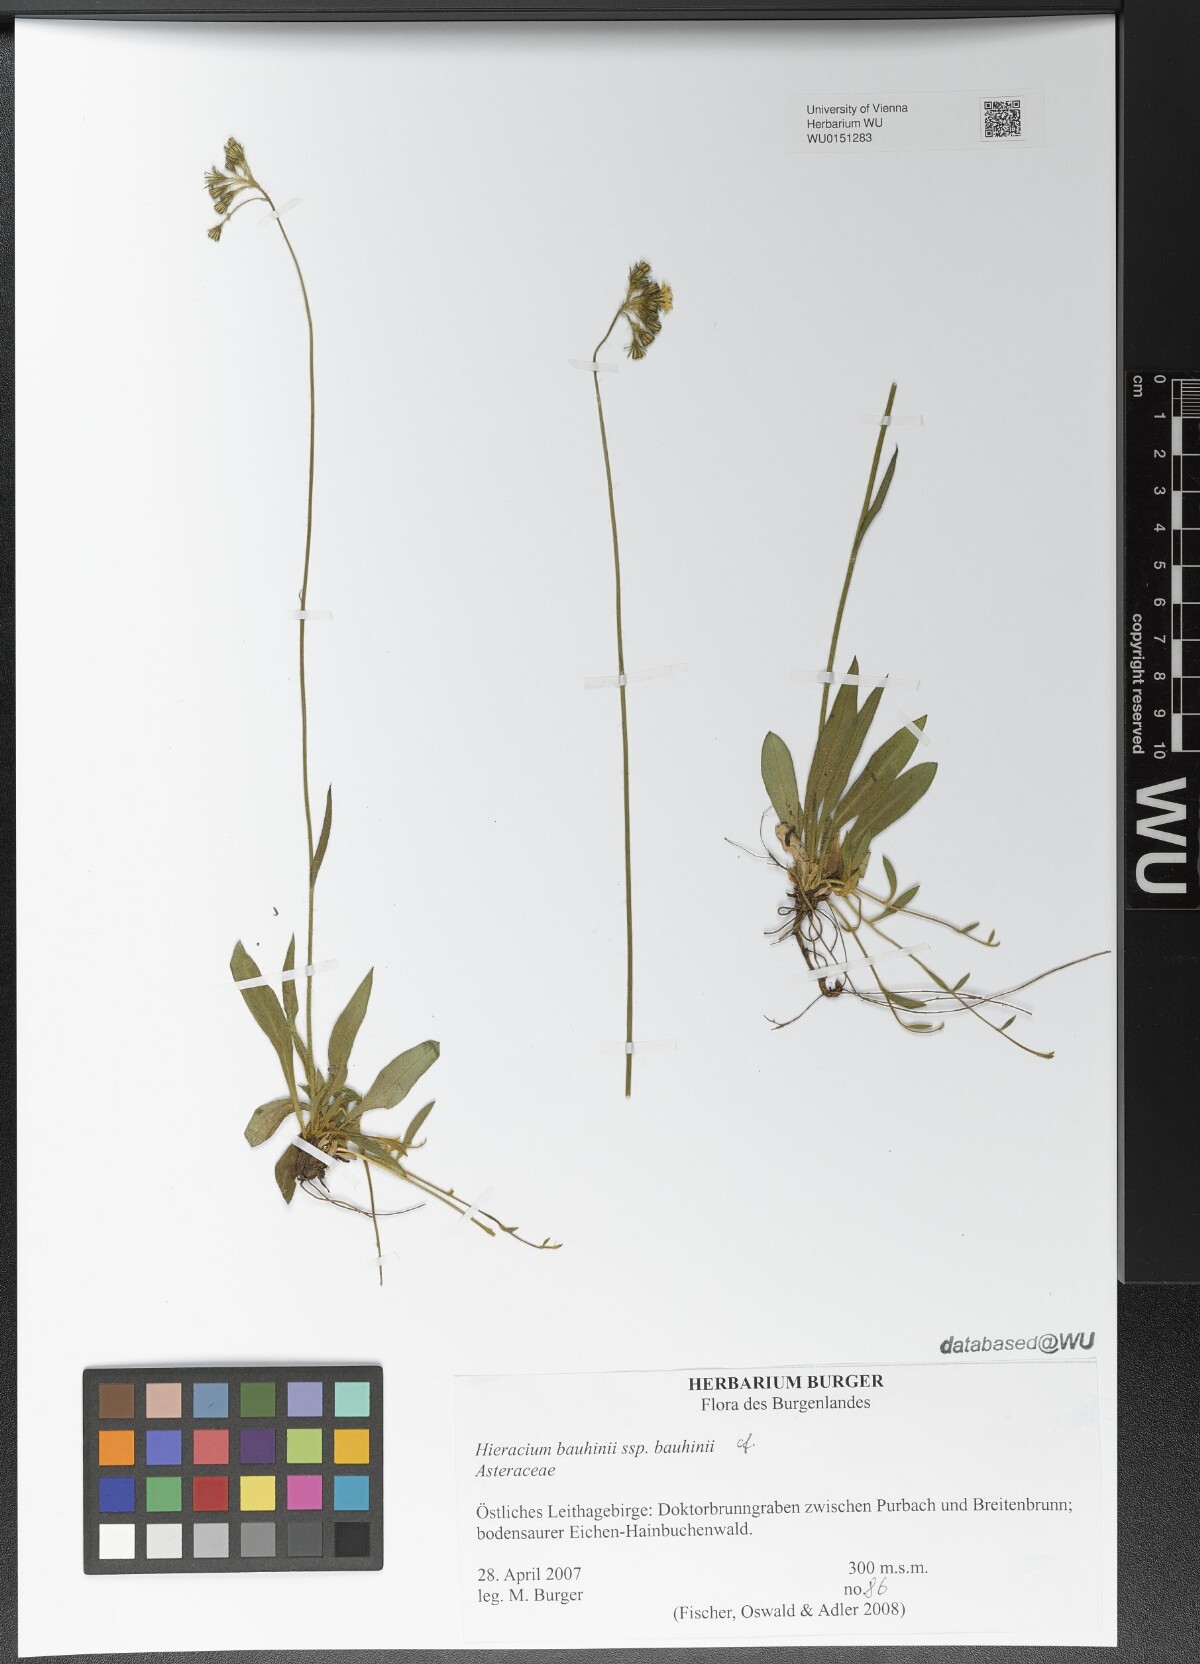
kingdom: Plantae
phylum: Tracheophyta
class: Magnoliopsida
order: Asterales
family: Asteraceae
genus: Pilosella
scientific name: Pilosella bauhini
